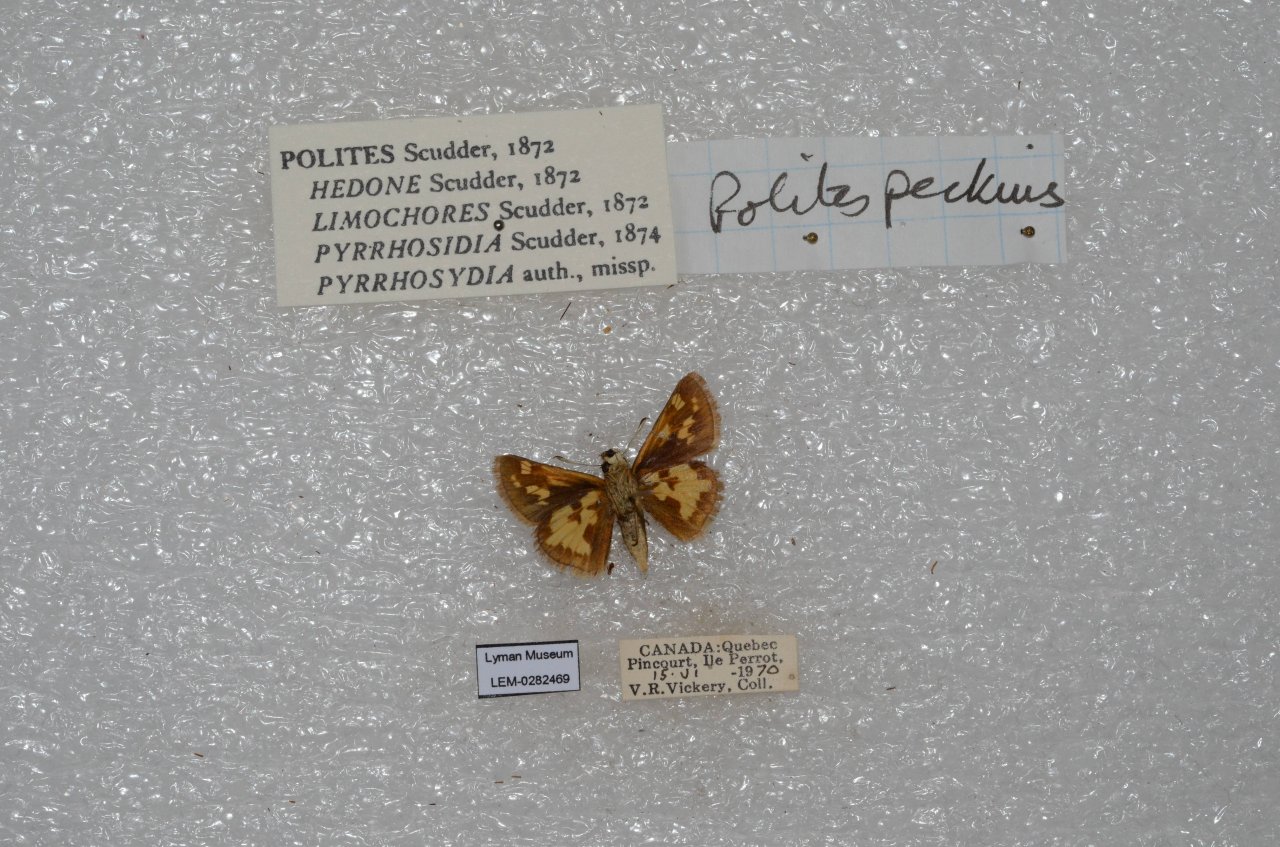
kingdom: Animalia
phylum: Arthropoda
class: Insecta
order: Lepidoptera
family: Hesperiidae
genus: Polites
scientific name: Polites coras
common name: Peck's Skipper
